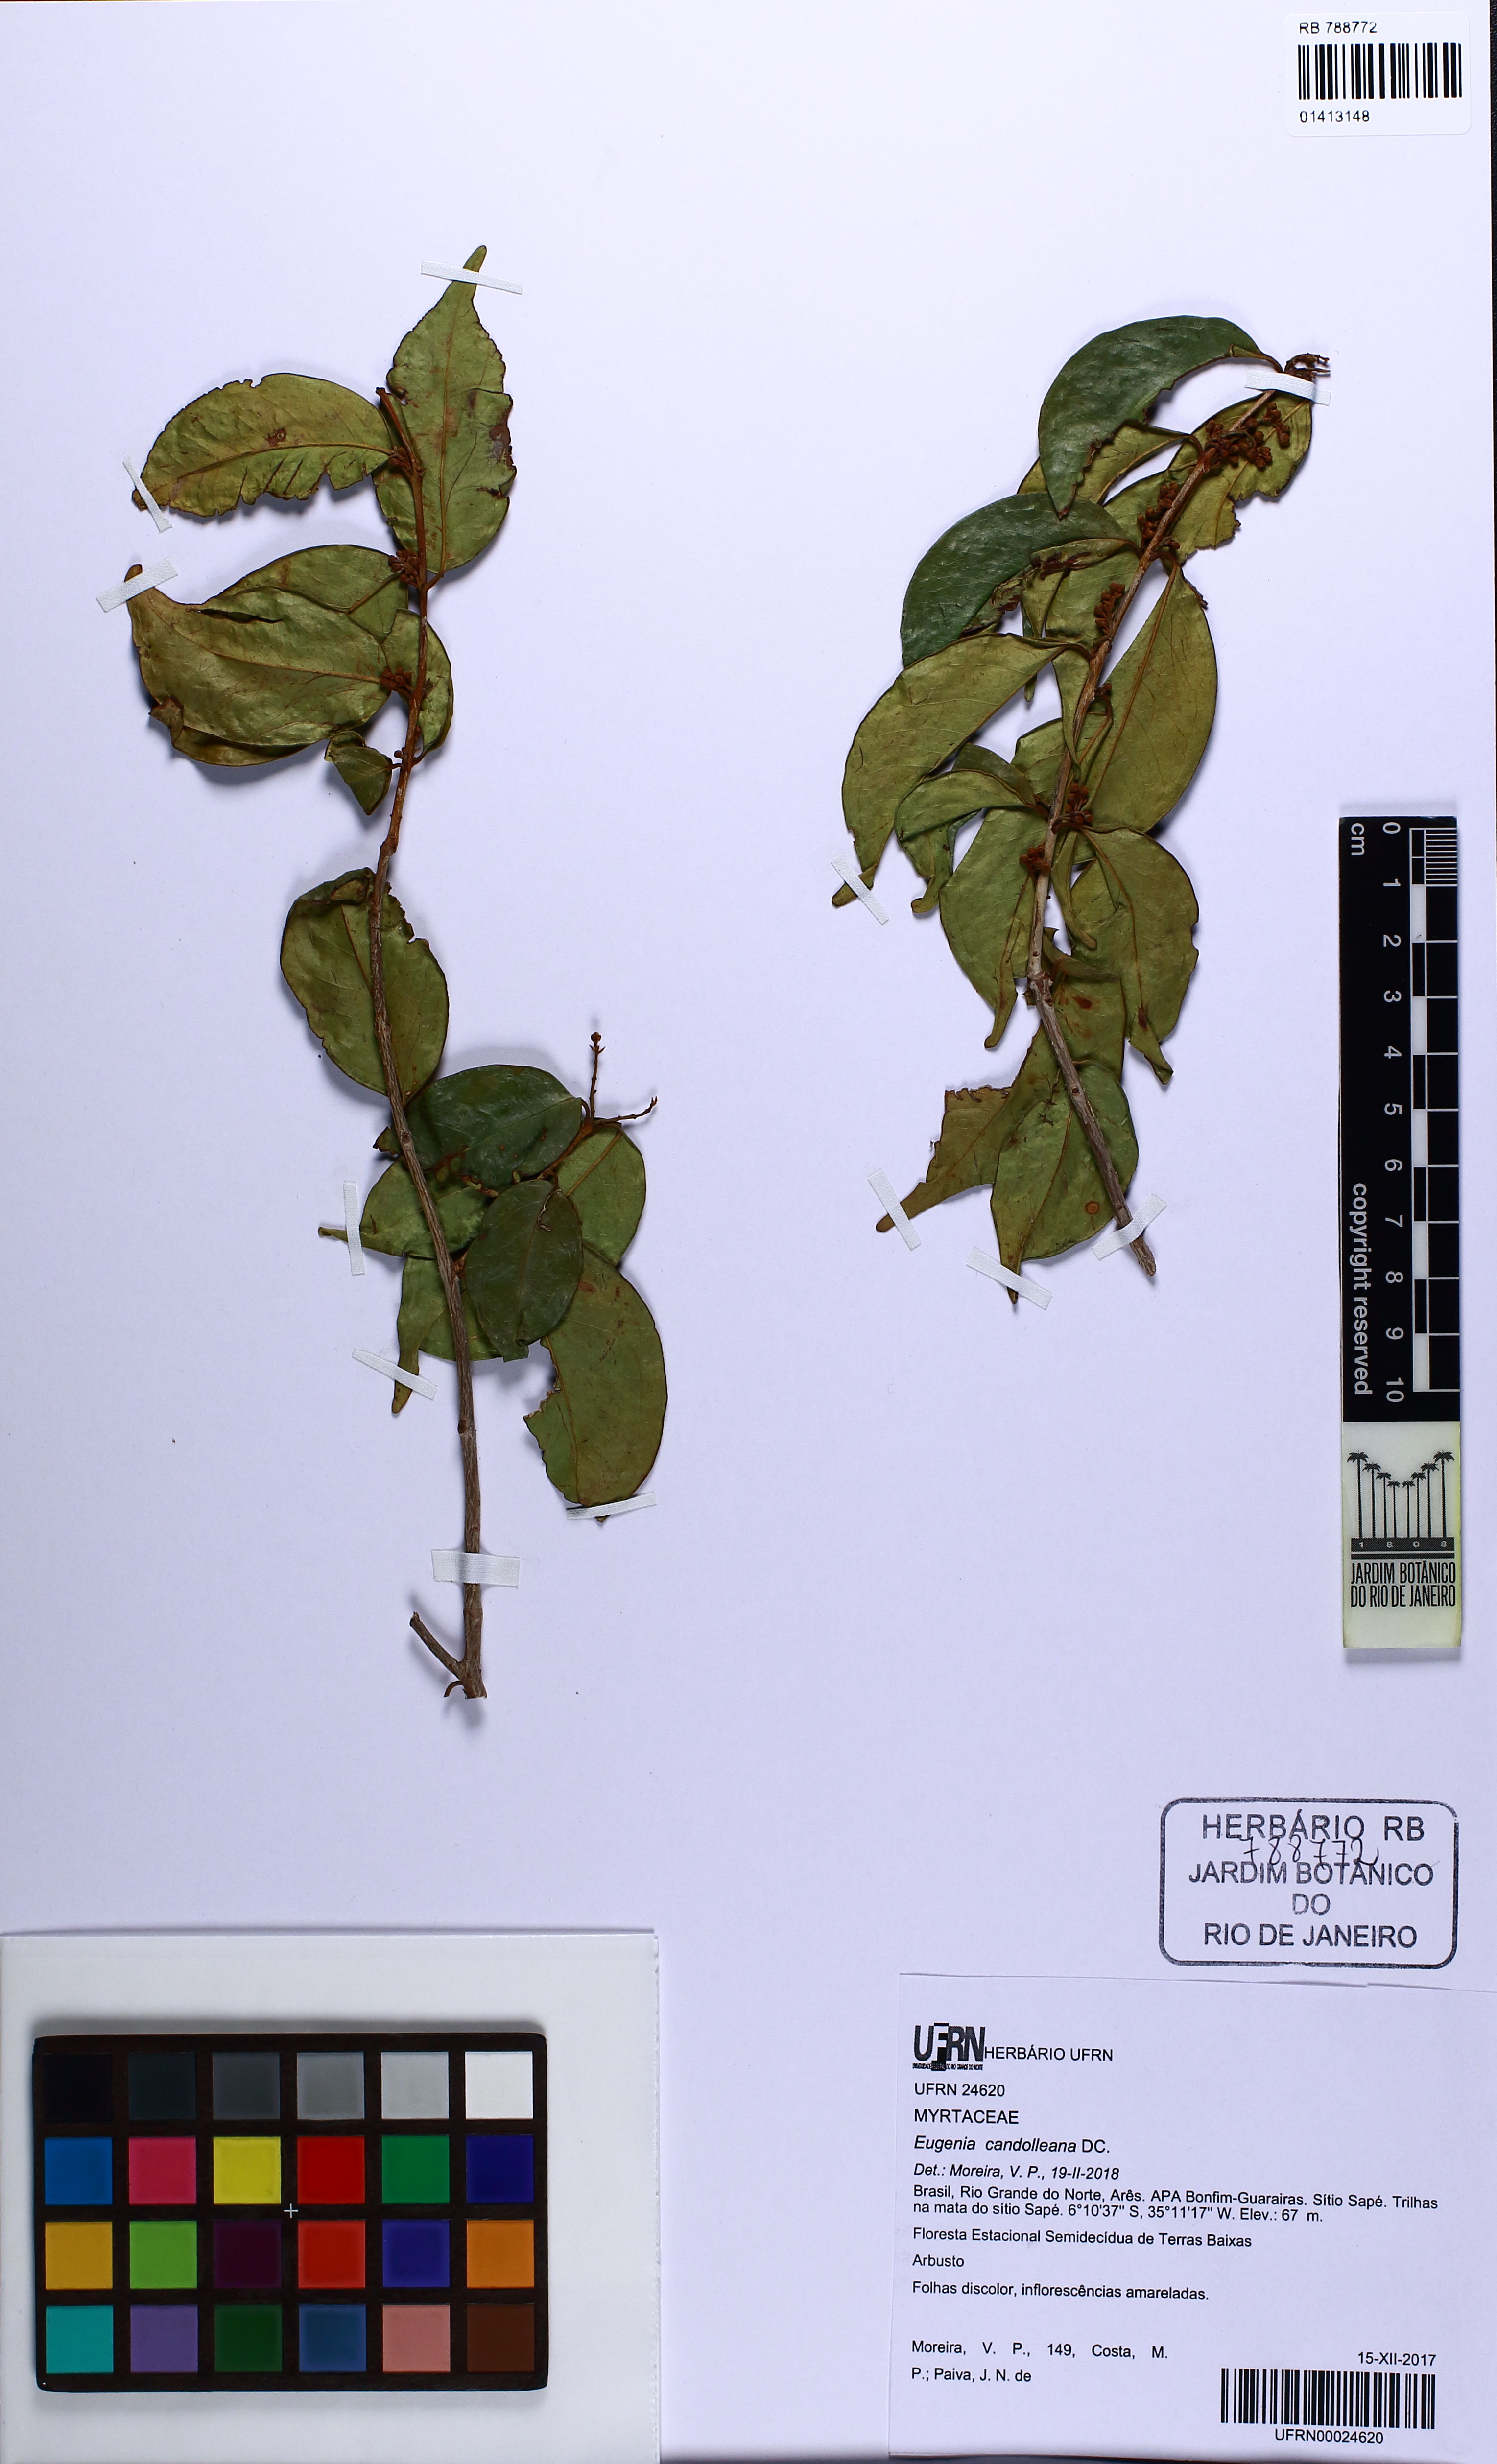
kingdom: Plantae
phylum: Tracheophyta
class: Magnoliopsida
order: Myrtales
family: Myrtaceae
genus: Eugenia
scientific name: Eugenia candolleana
